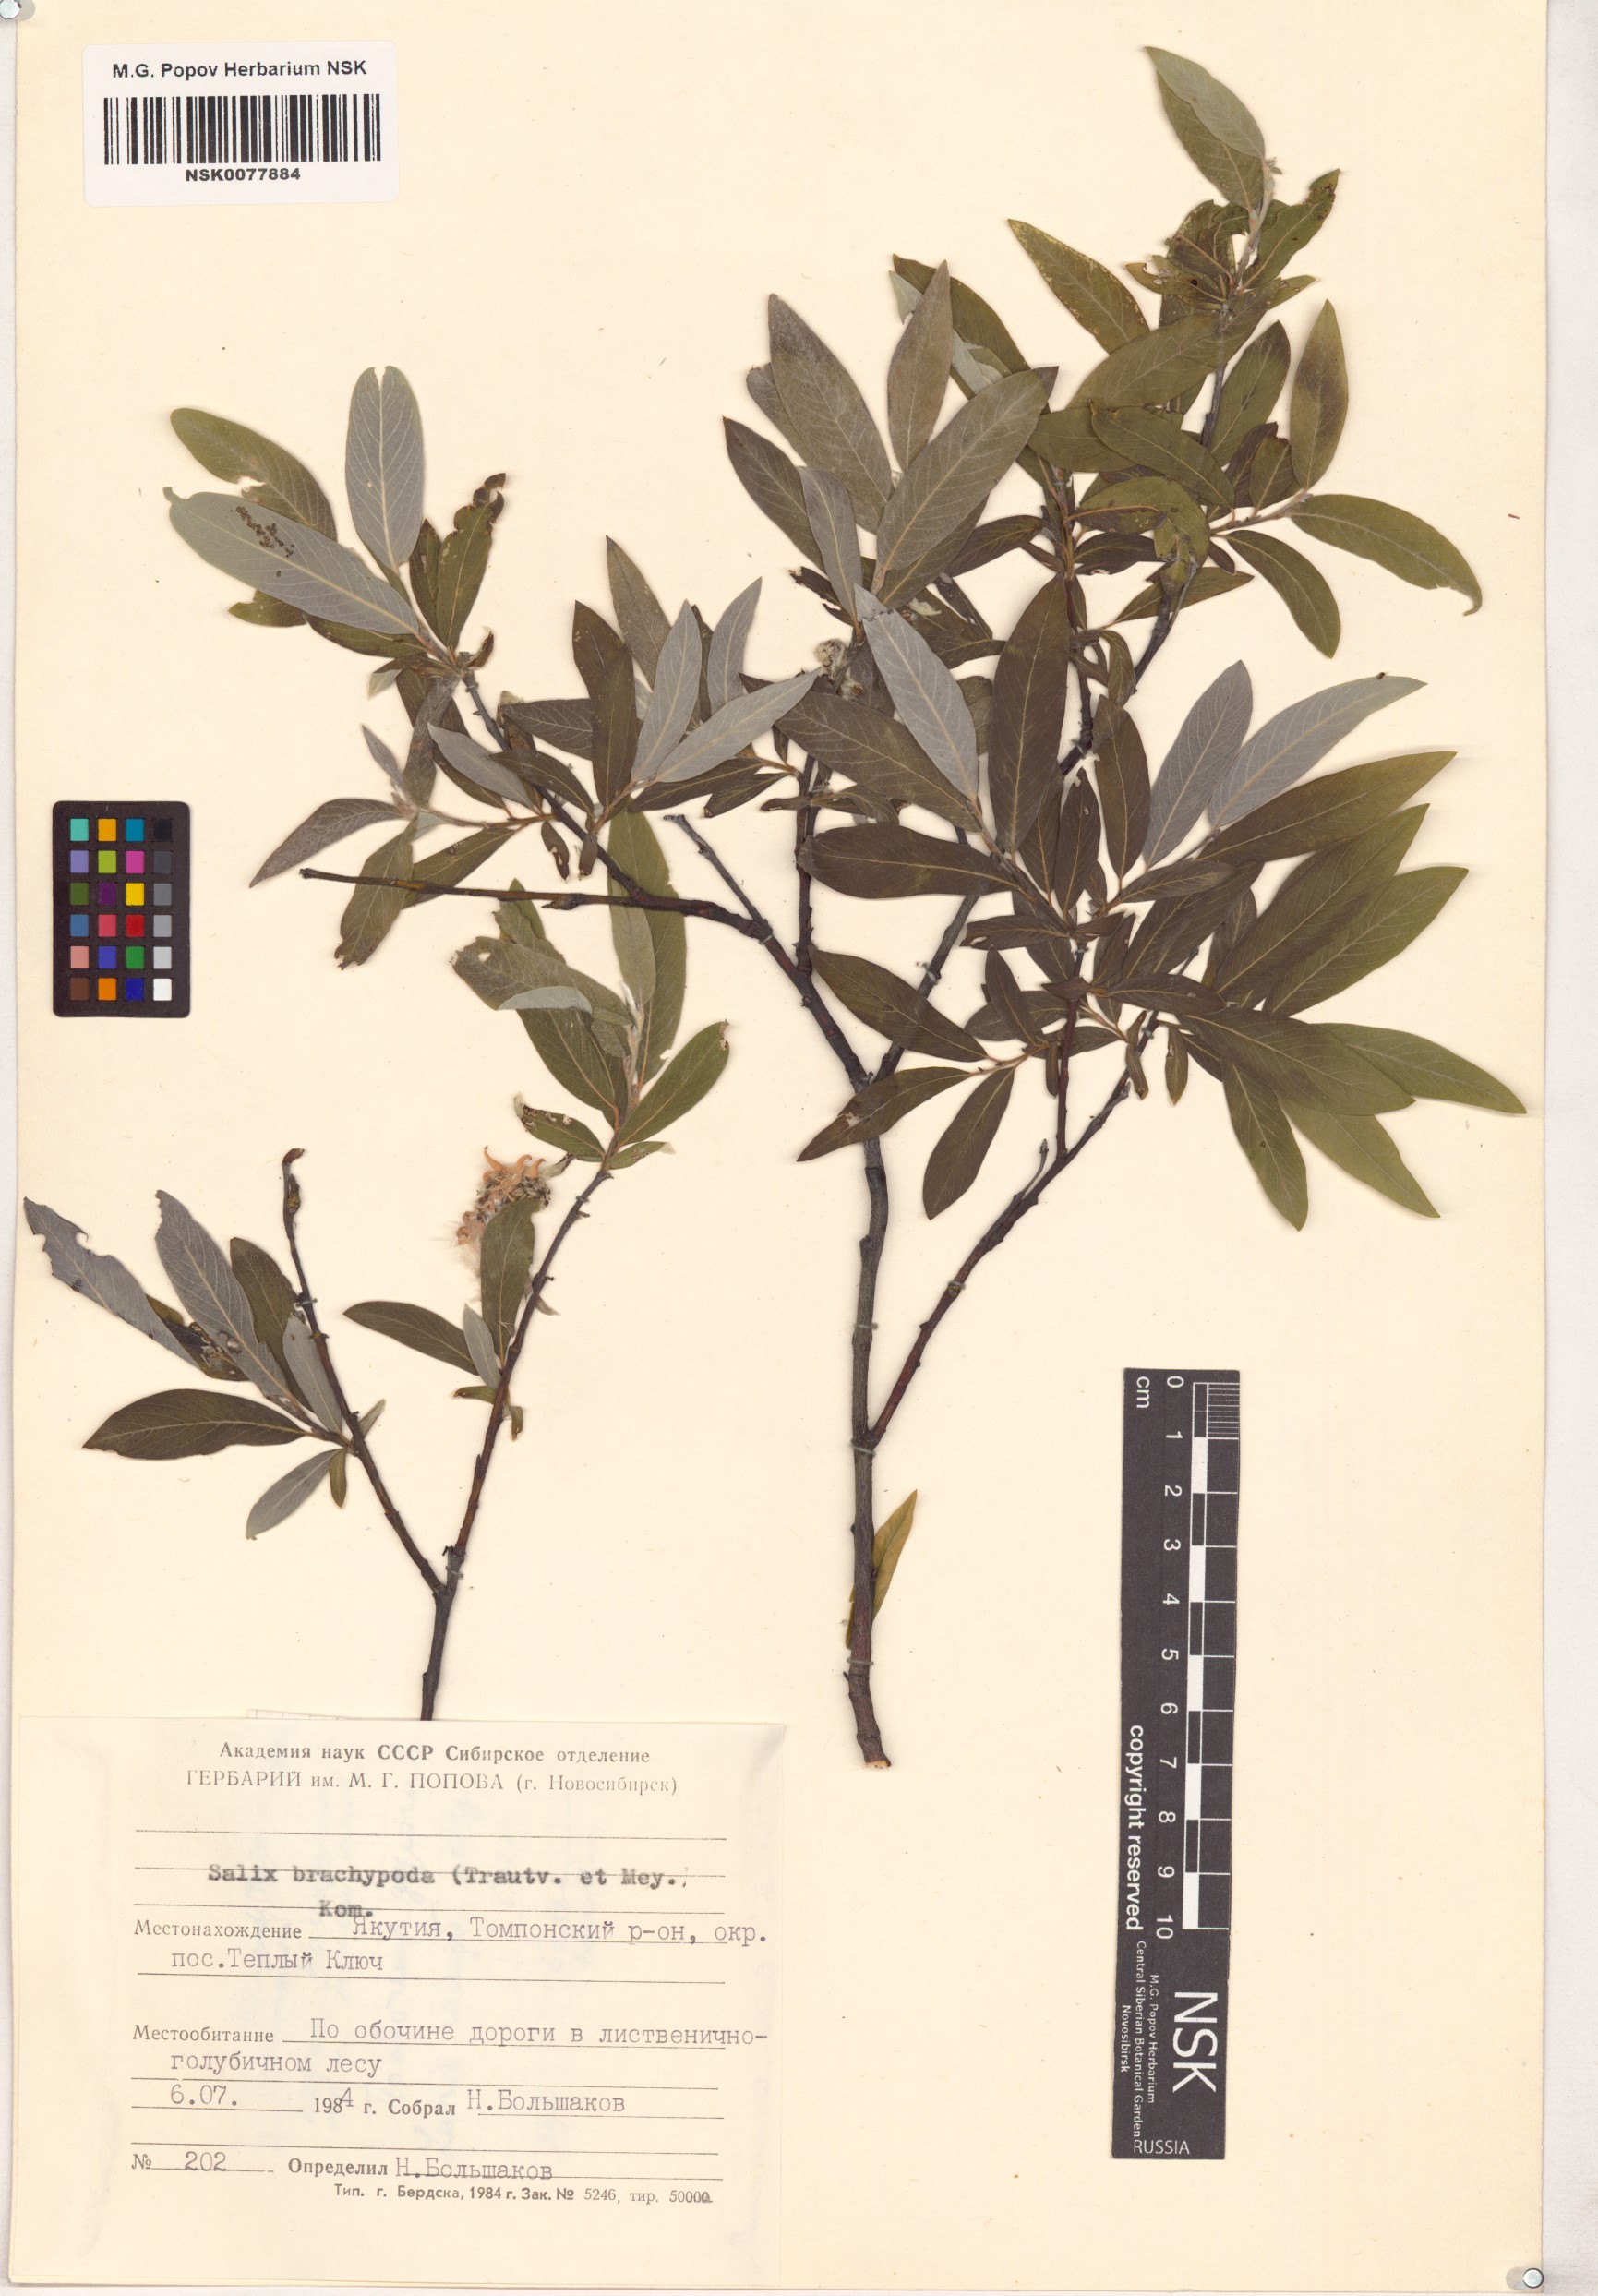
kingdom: Plantae
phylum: Tracheophyta
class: Magnoliopsida
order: Malpighiales
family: Salicaceae
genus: Salix
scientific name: Salix brachypoda
